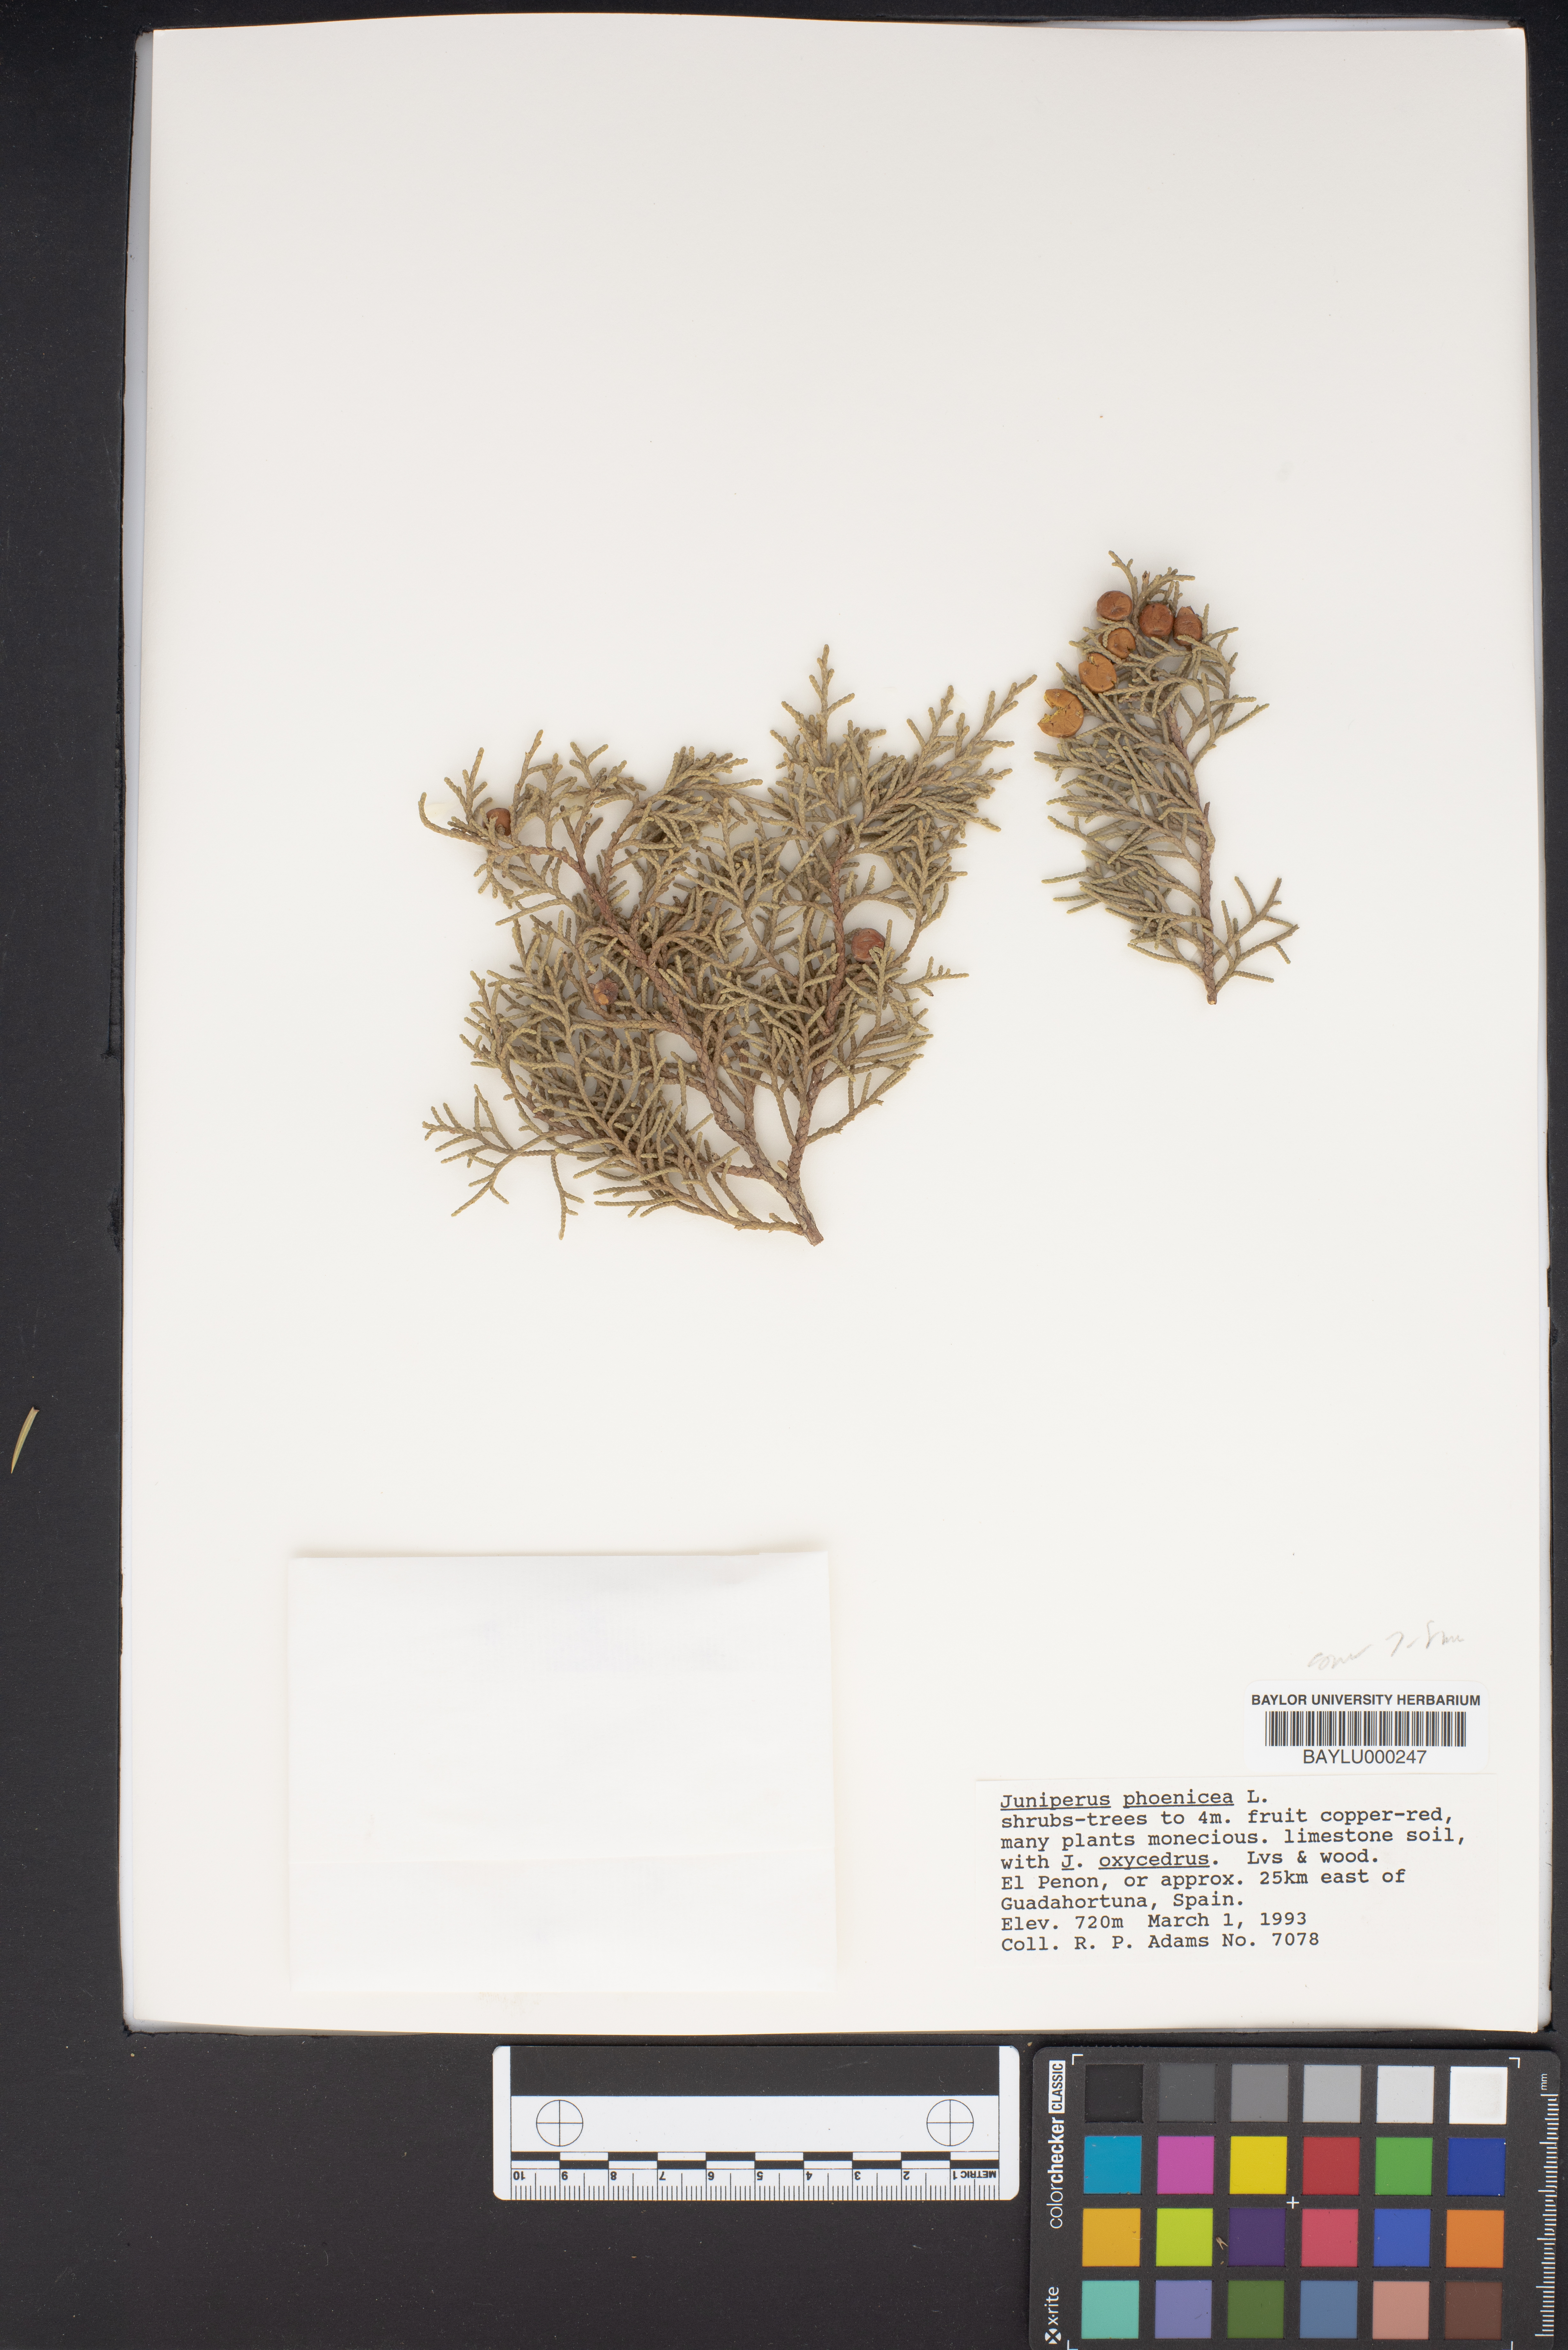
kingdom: Plantae
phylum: Tracheophyta
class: Pinopsida
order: Pinales
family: Cupressaceae
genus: Juniperus
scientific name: Juniperus phoenicea
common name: Phoenician juniper
